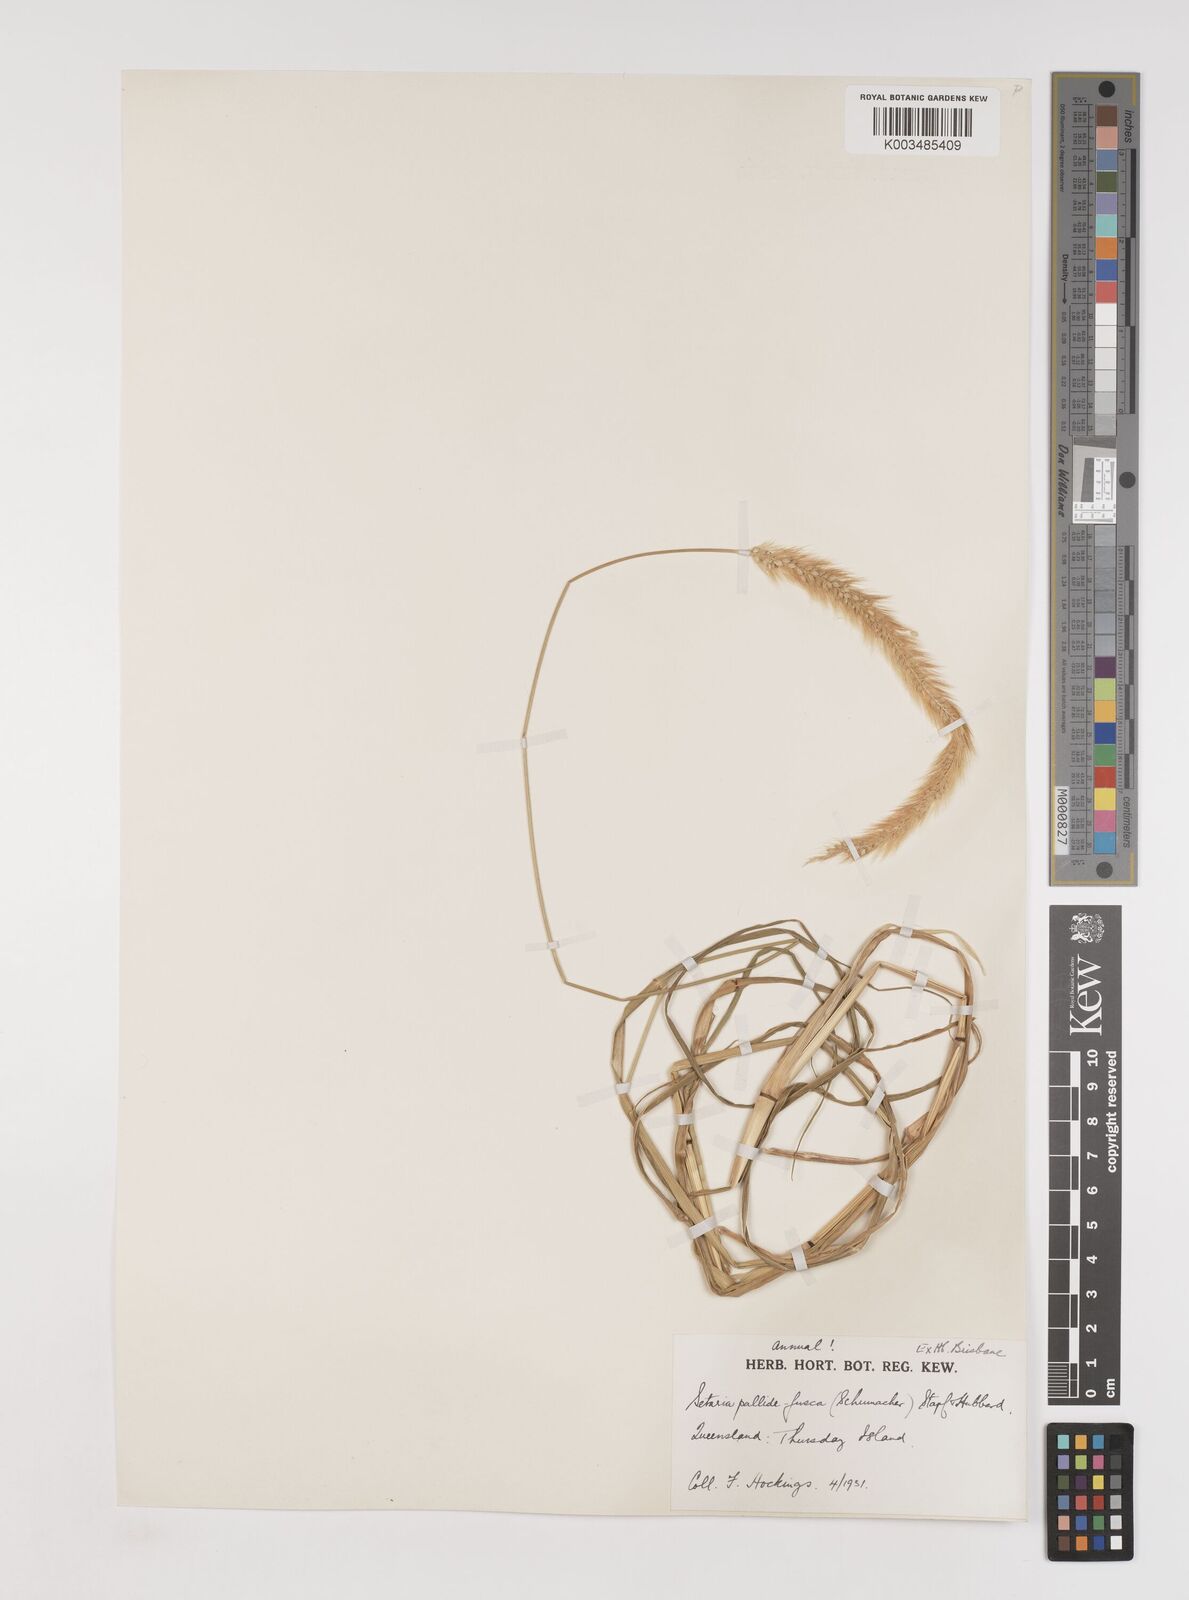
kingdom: Plantae
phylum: Tracheophyta
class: Liliopsida
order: Poales
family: Poaceae
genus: Setaria
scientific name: Setaria pumila
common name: Yellow bristle-grass
